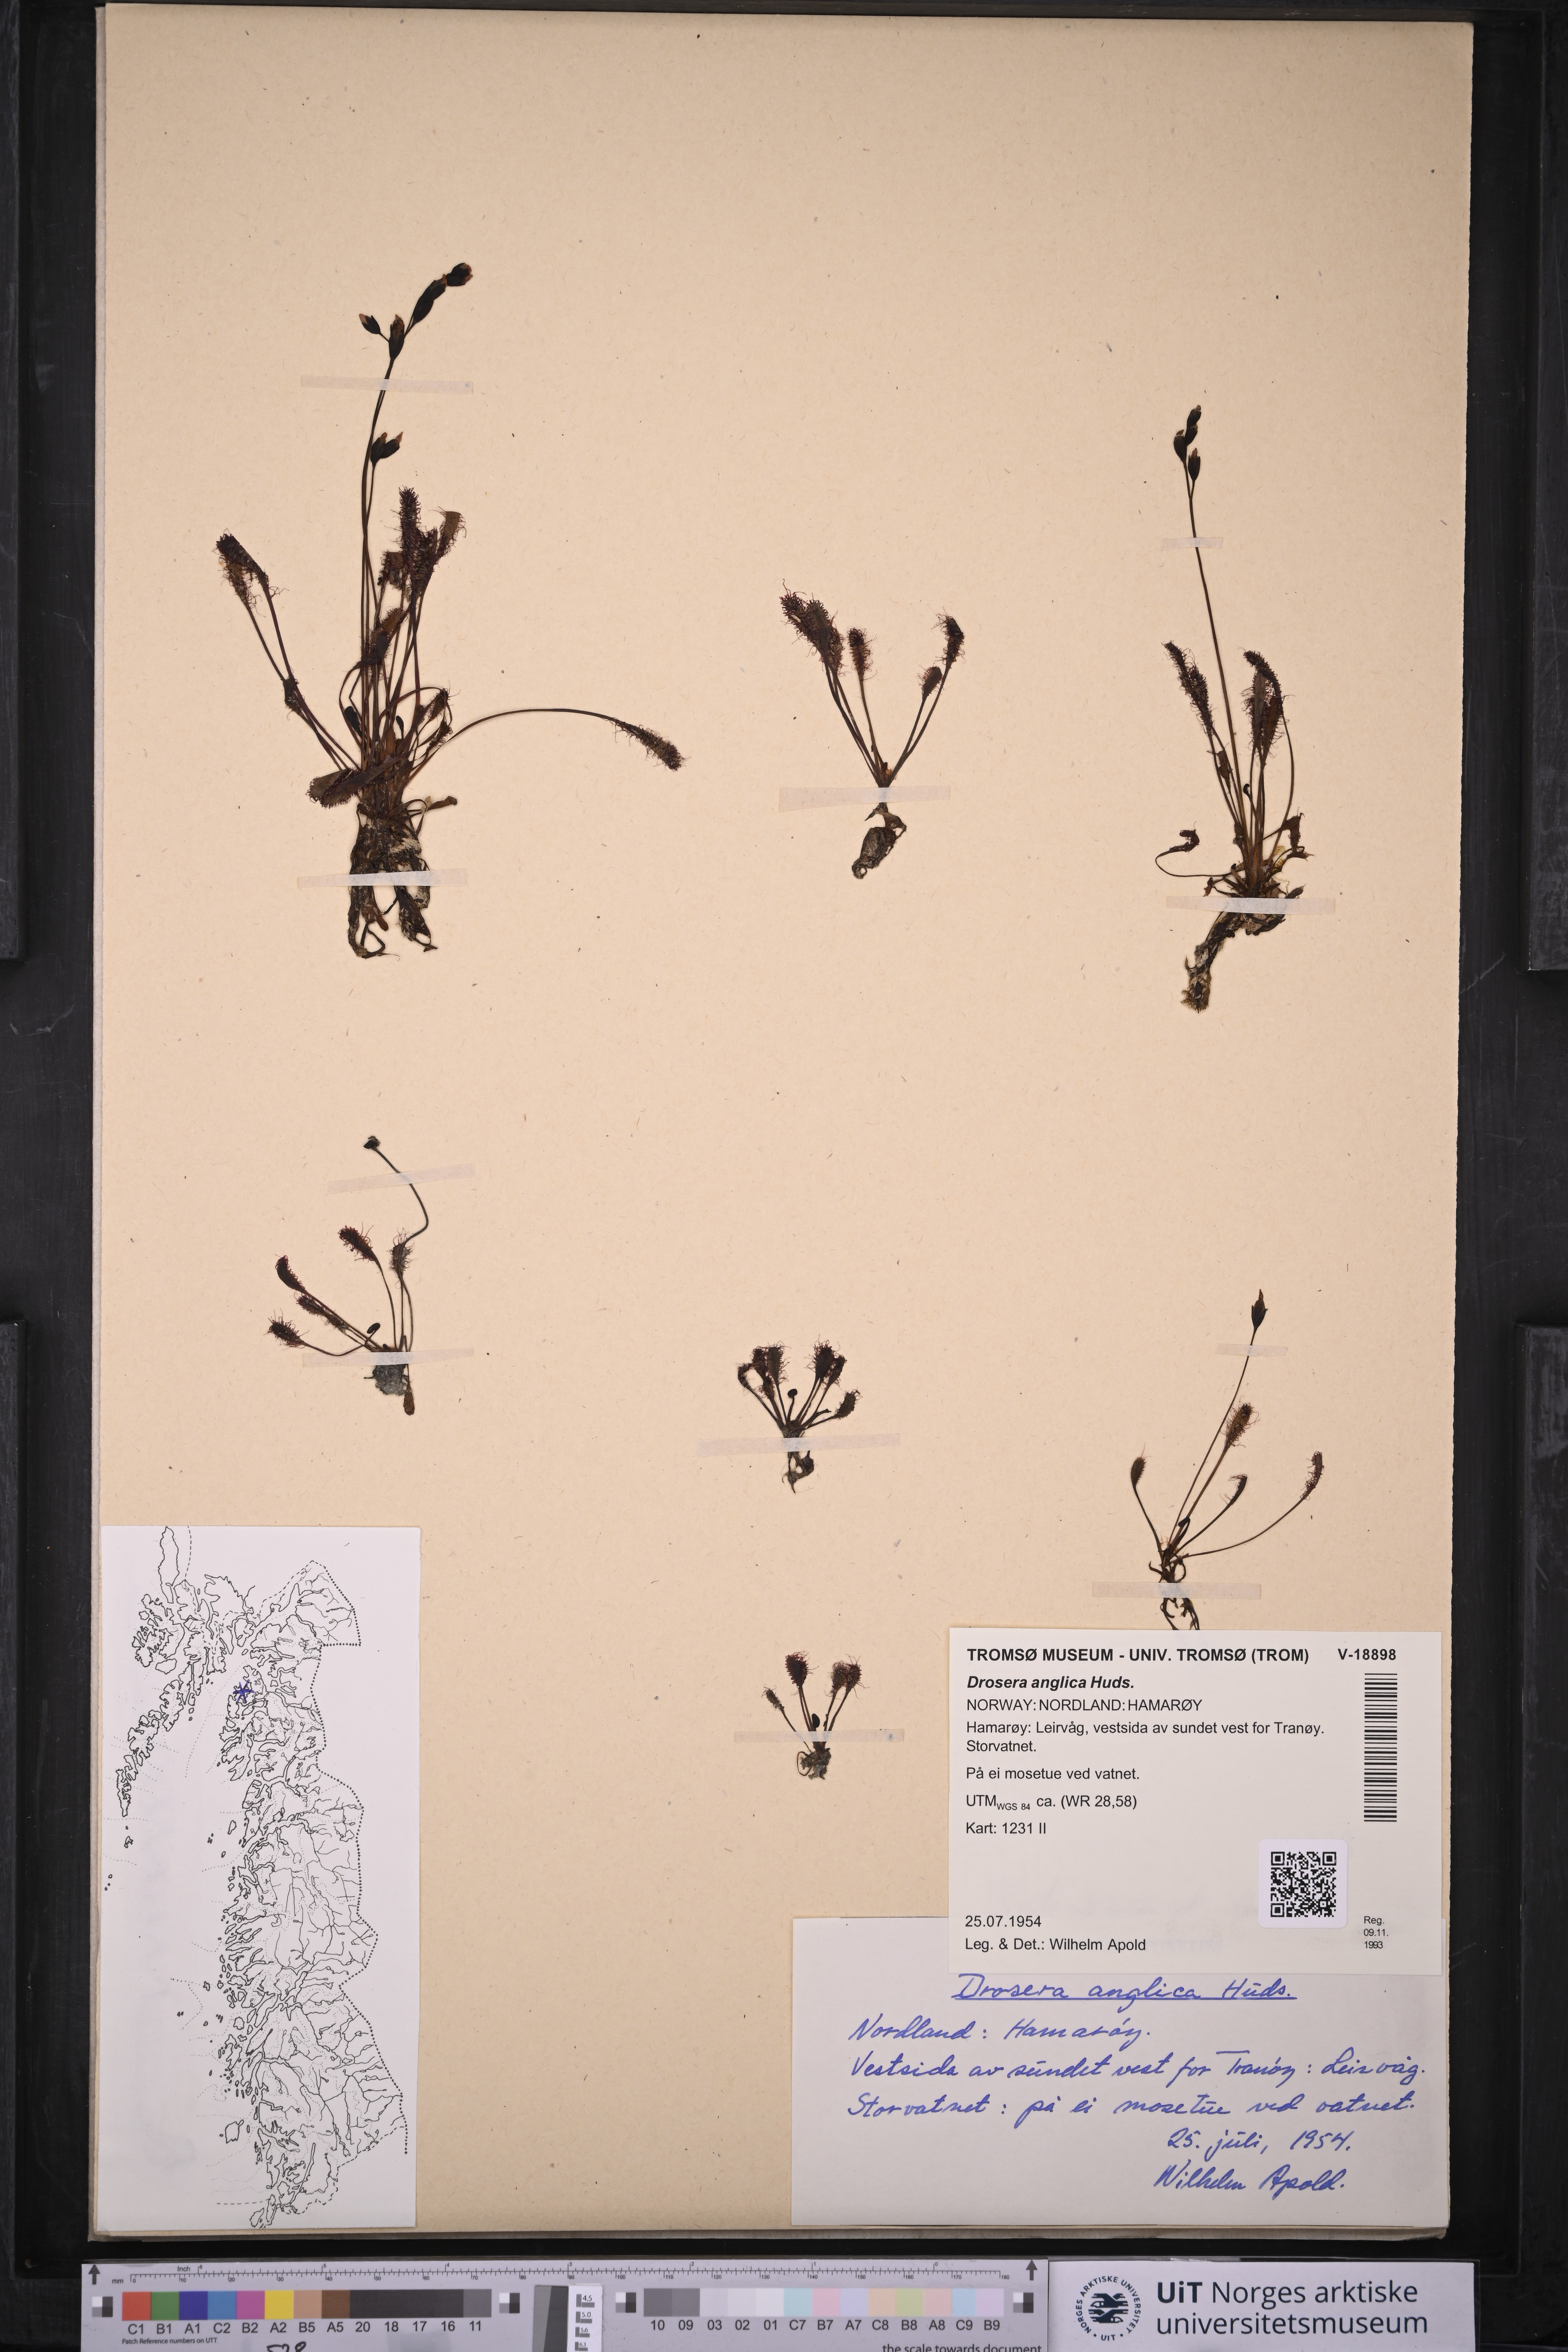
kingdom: Plantae
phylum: Tracheophyta
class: Magnoliopsida
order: Caryophyllales
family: Droseraceae
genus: Drosera
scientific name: Drosera anglica
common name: Great sundew
